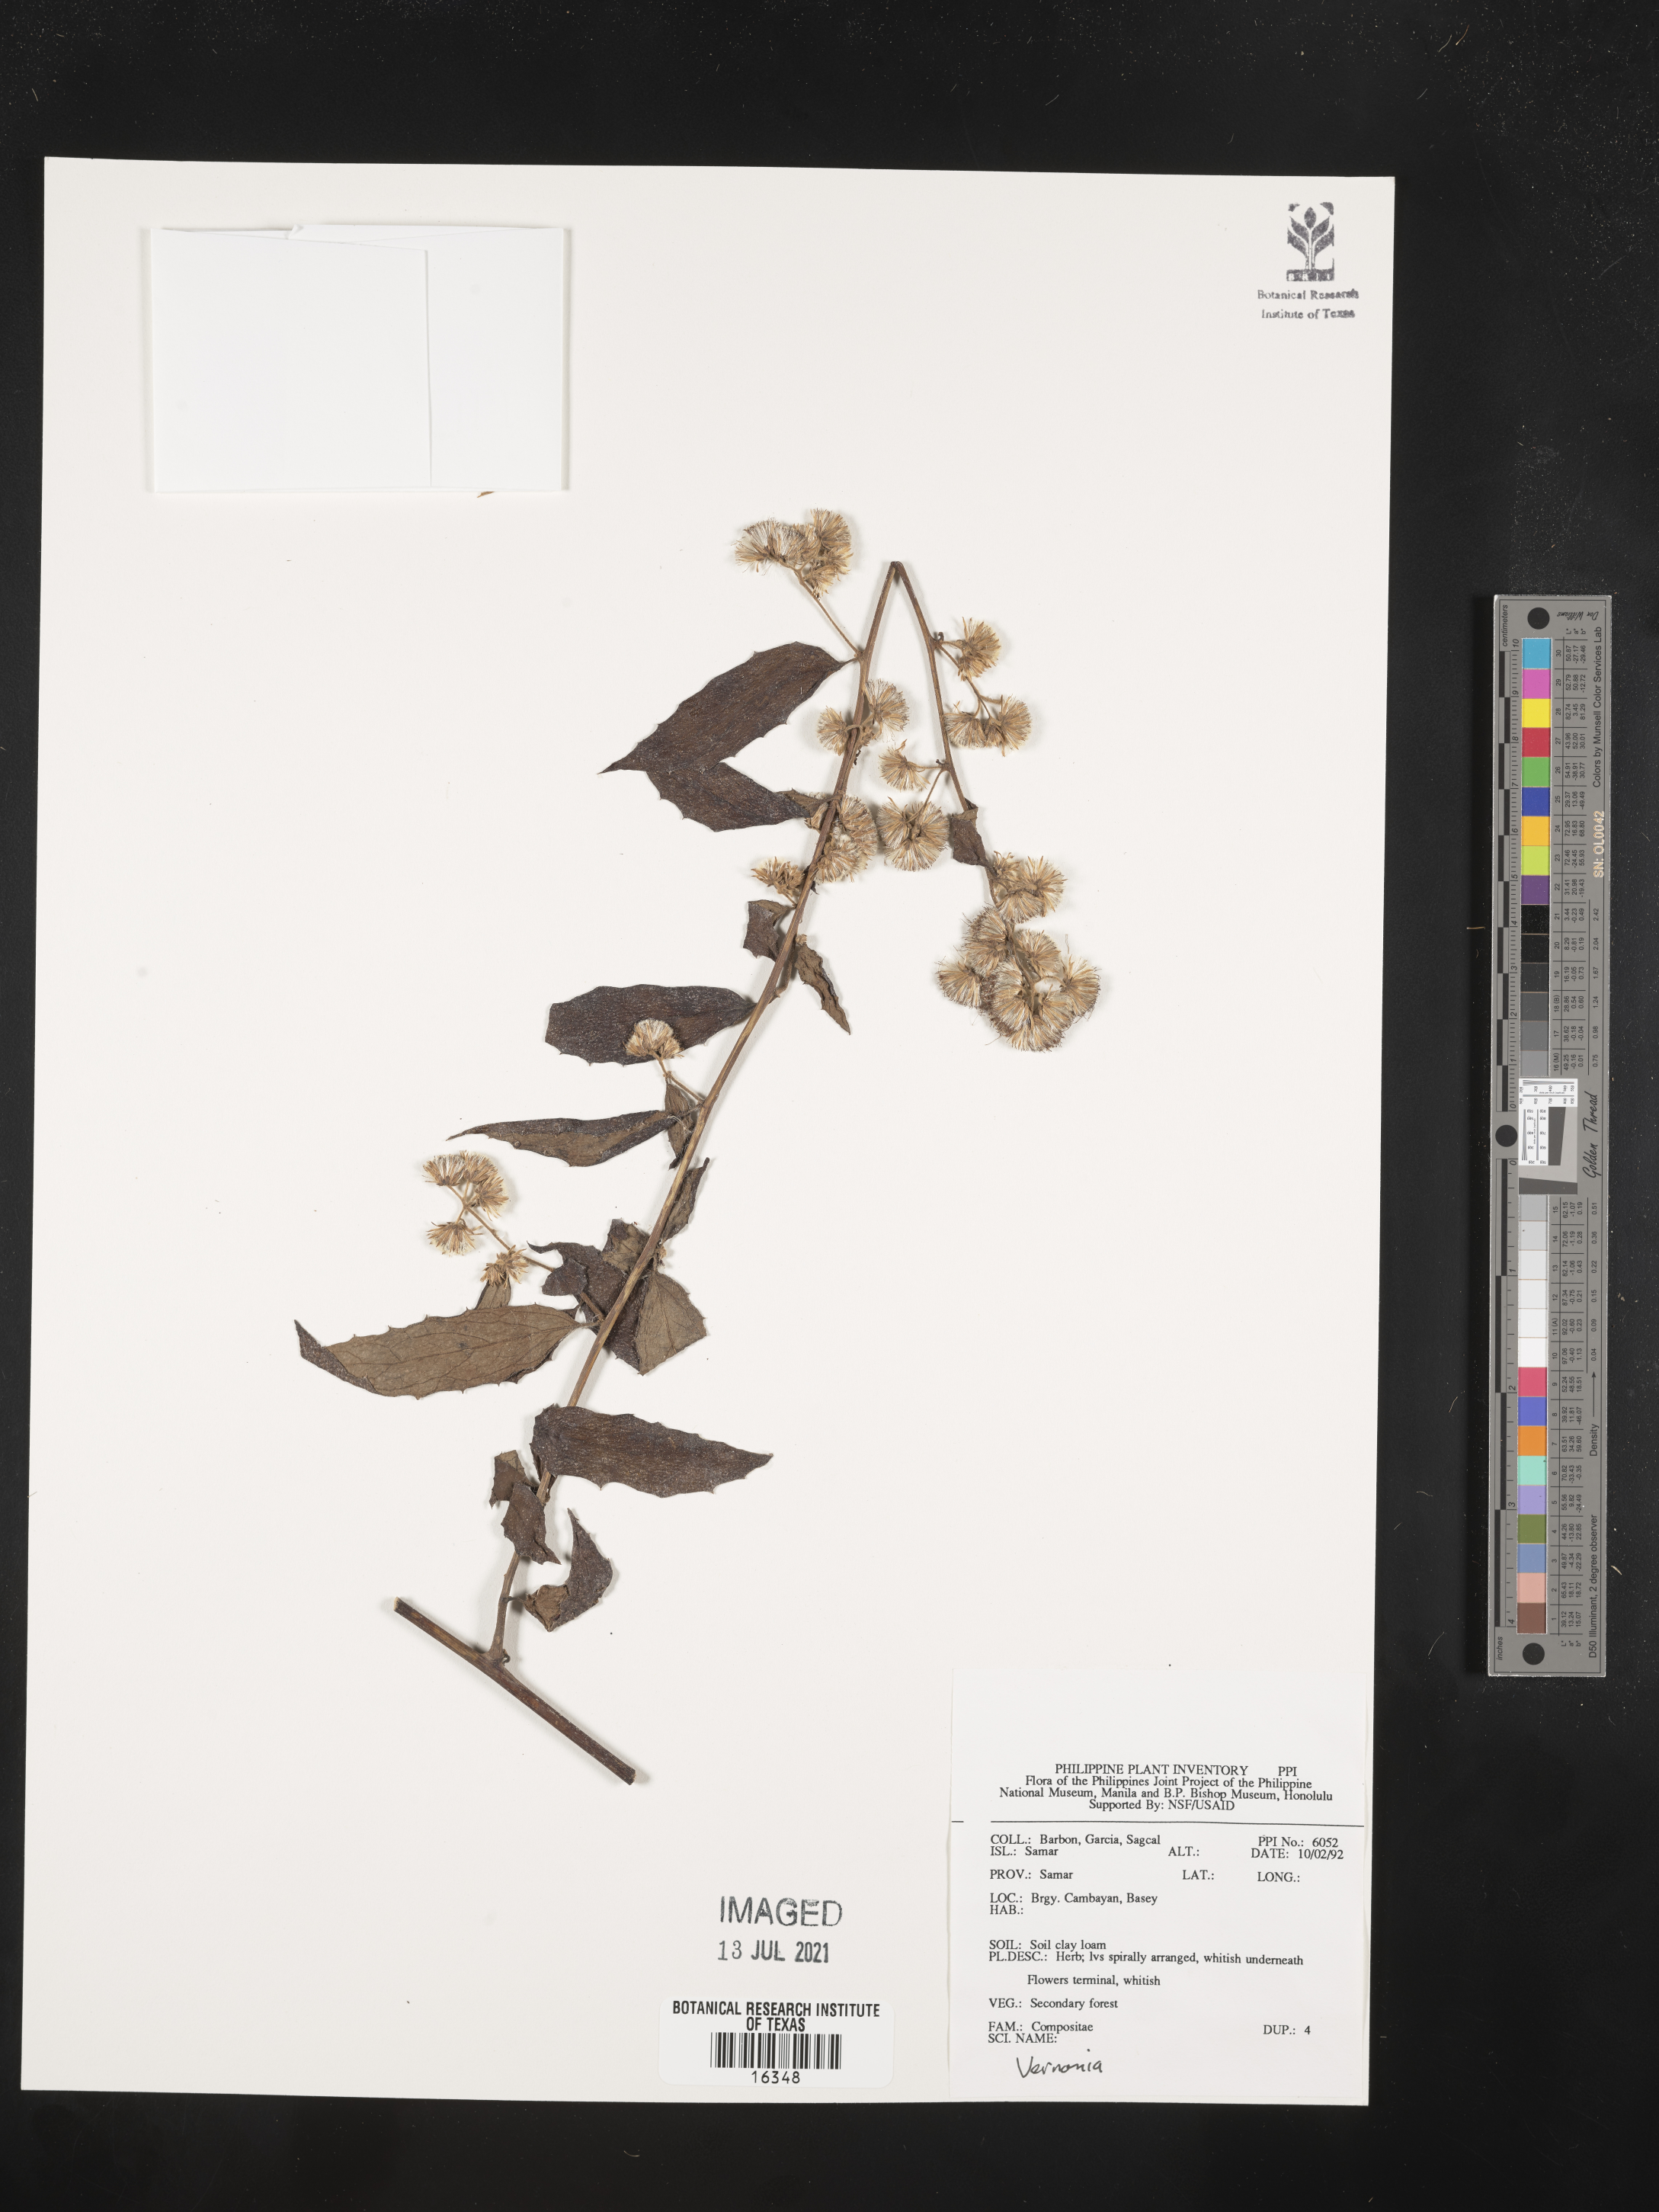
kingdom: Plantae
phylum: Tracheophyta
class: Magnoliopsida
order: Asterales
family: Asteraceae
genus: Vernonia
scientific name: Vernonia
